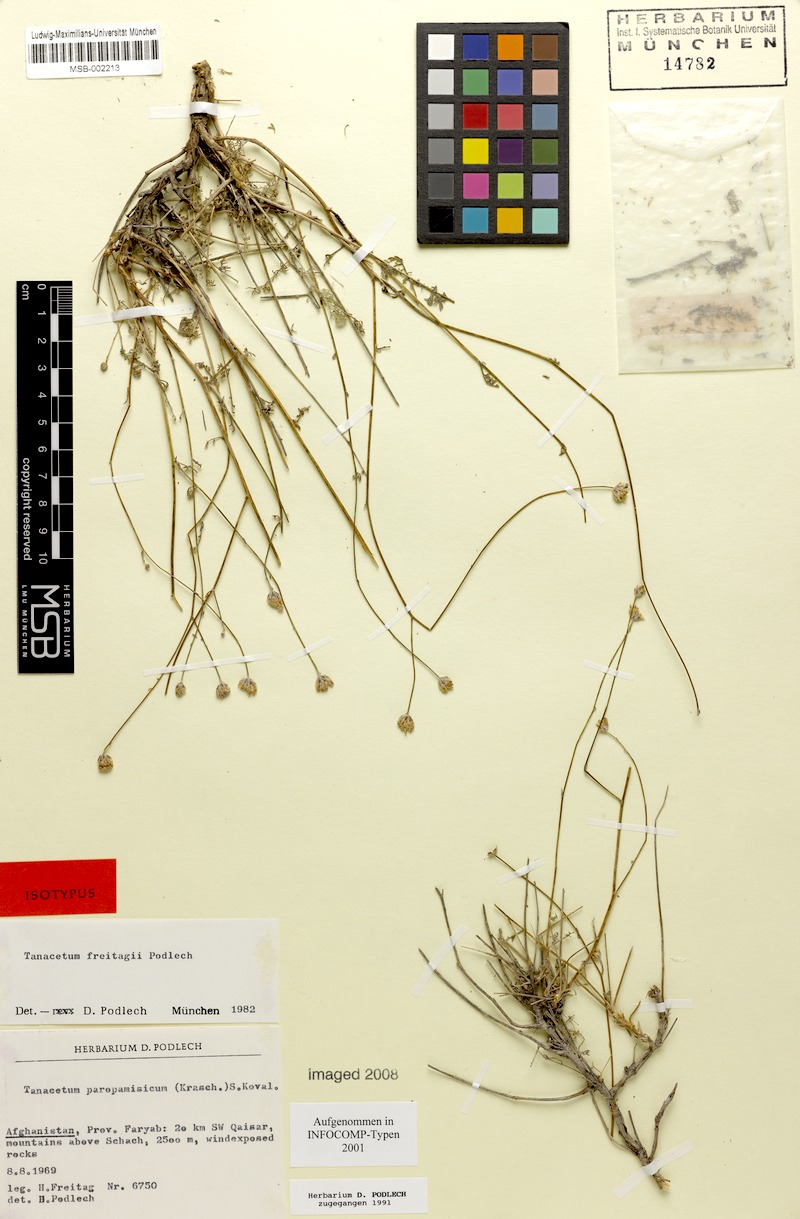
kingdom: Plantae
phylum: Tracheophyta
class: Magnoliopsida
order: Asterales
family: Asteraceae
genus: Tanacetopsis
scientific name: Tanacetopsis freitagii
